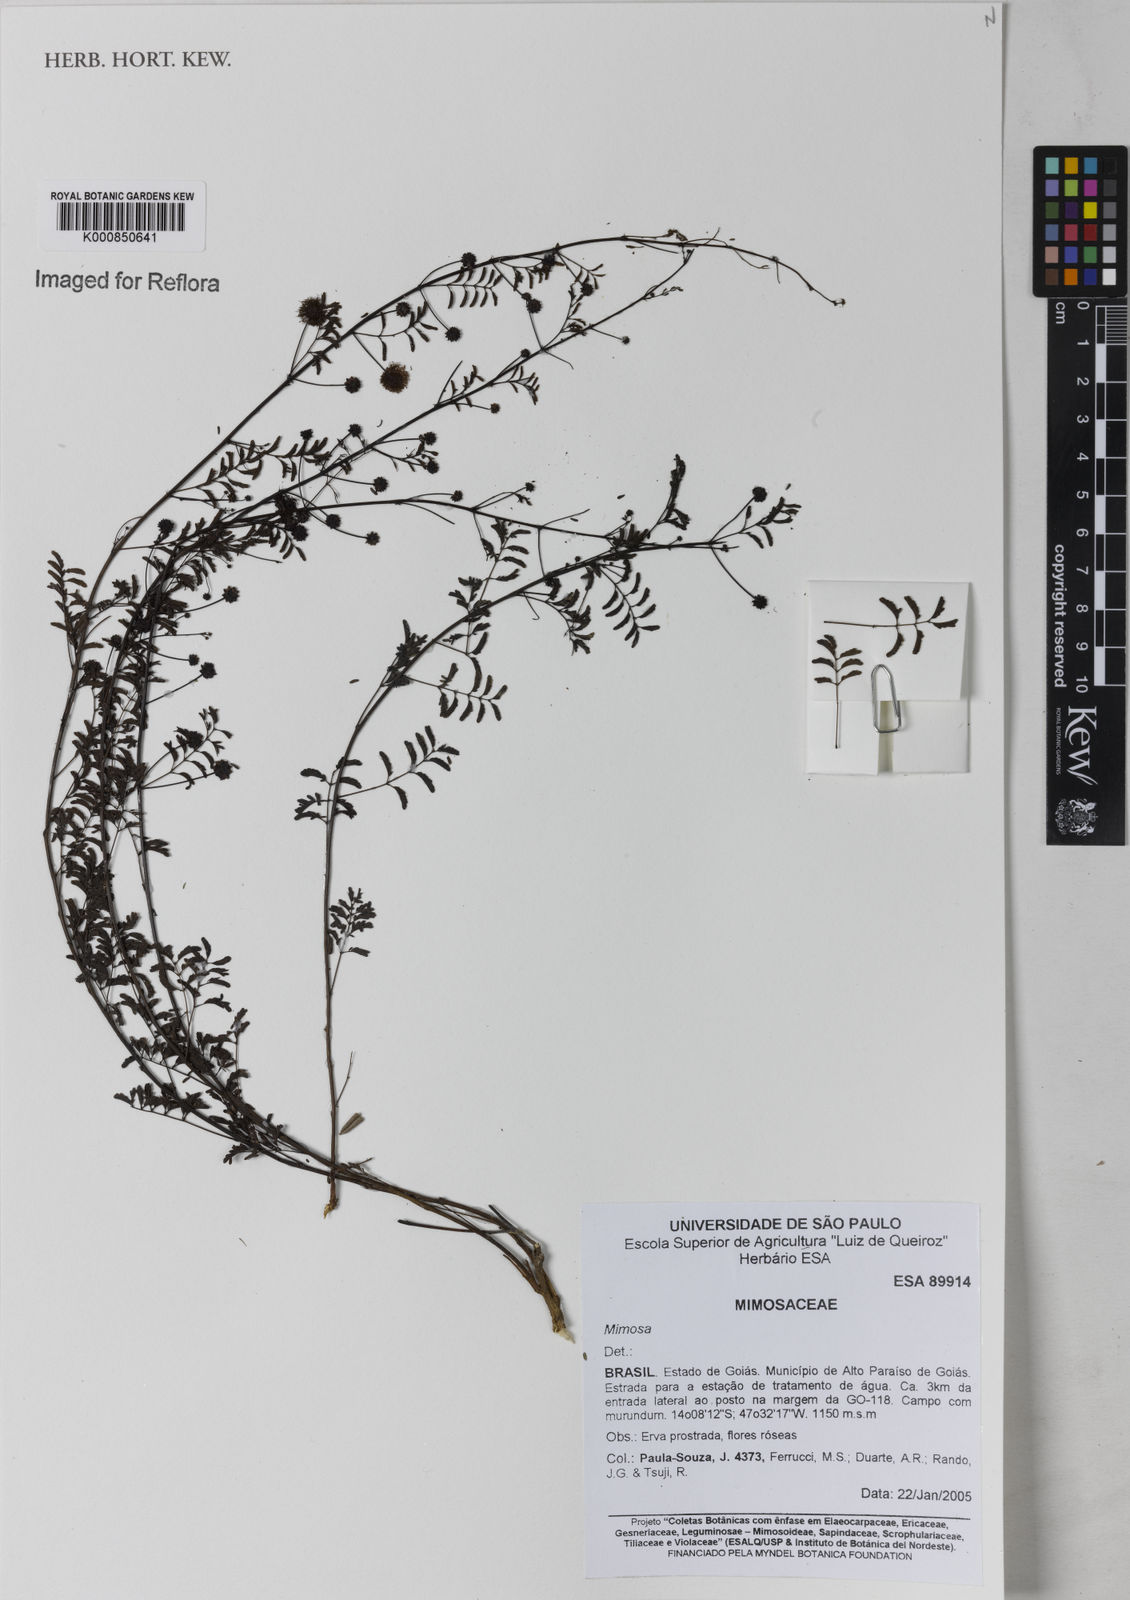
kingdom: Plantae
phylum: Tracheophyta
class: Magnoliopsida
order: Fabales
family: Fabaceae
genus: Mimosa
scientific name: Mimosa gatesiae
